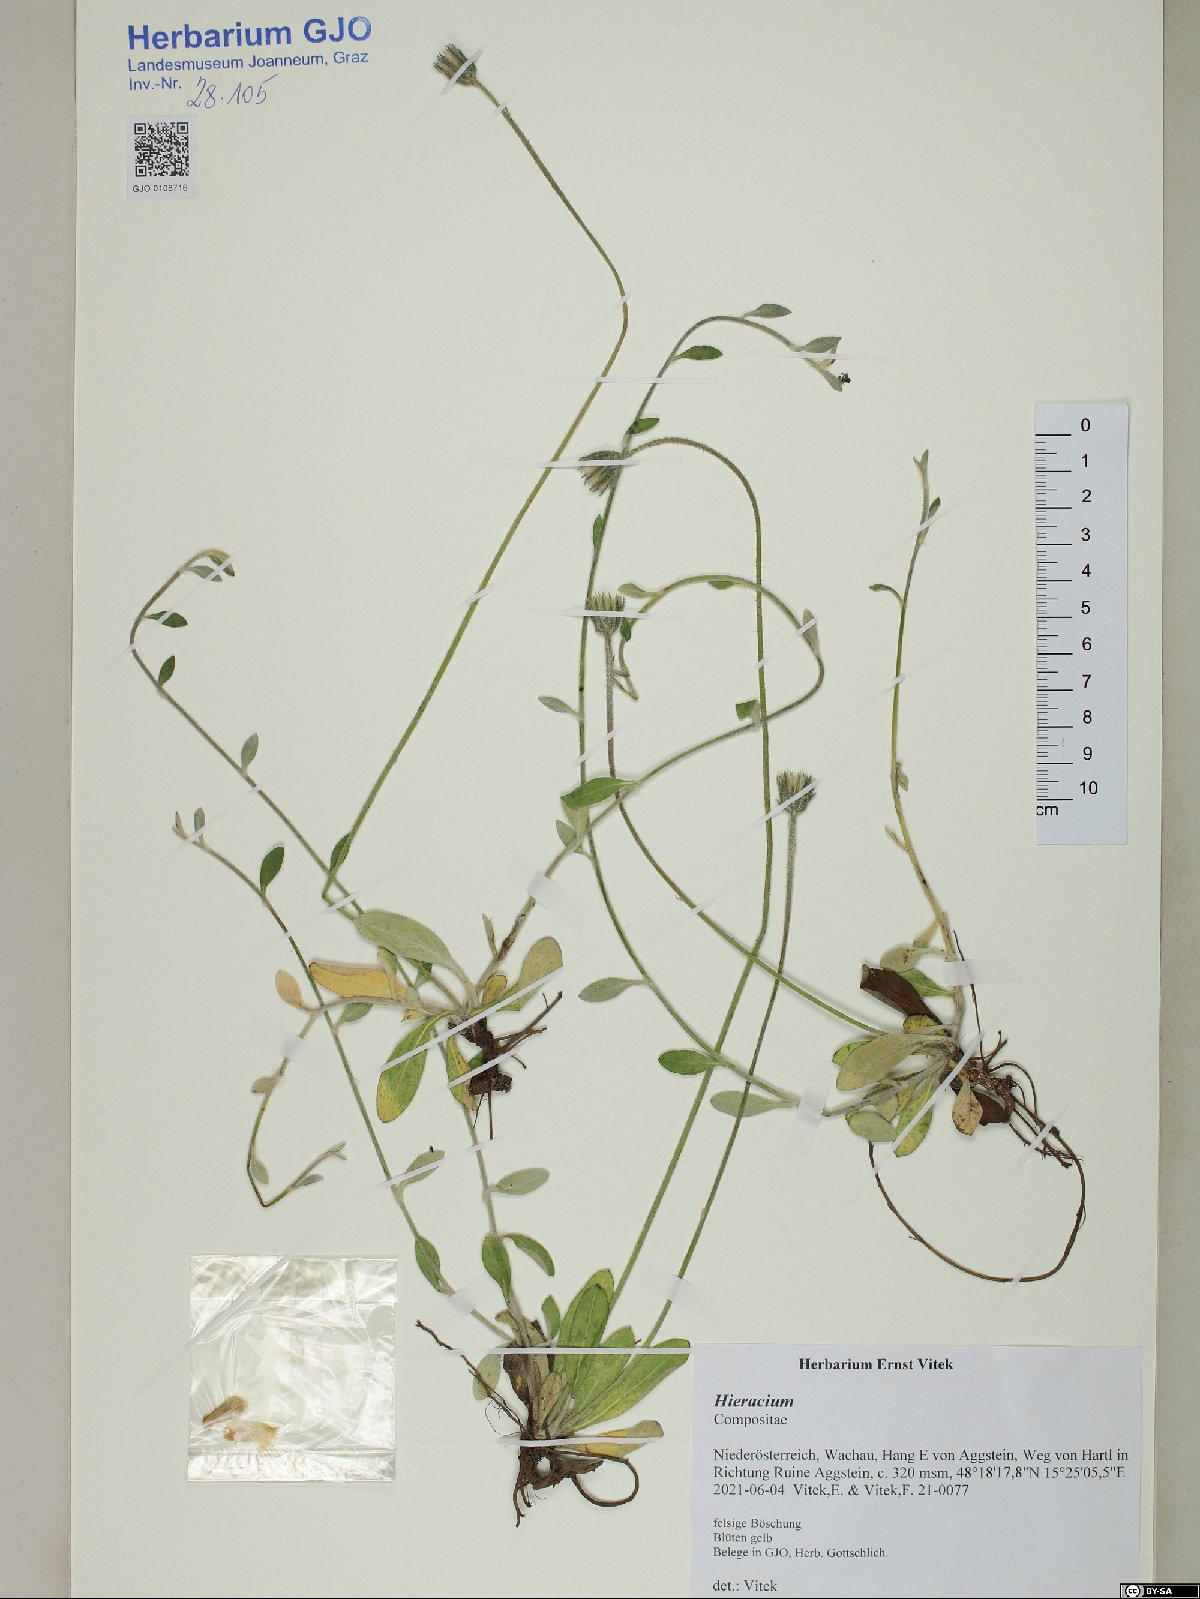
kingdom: Plantae
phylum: Tracheophyta
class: Magnoliopsida
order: Asterales
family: Asteraceae
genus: Hieracium
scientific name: Hieracium
